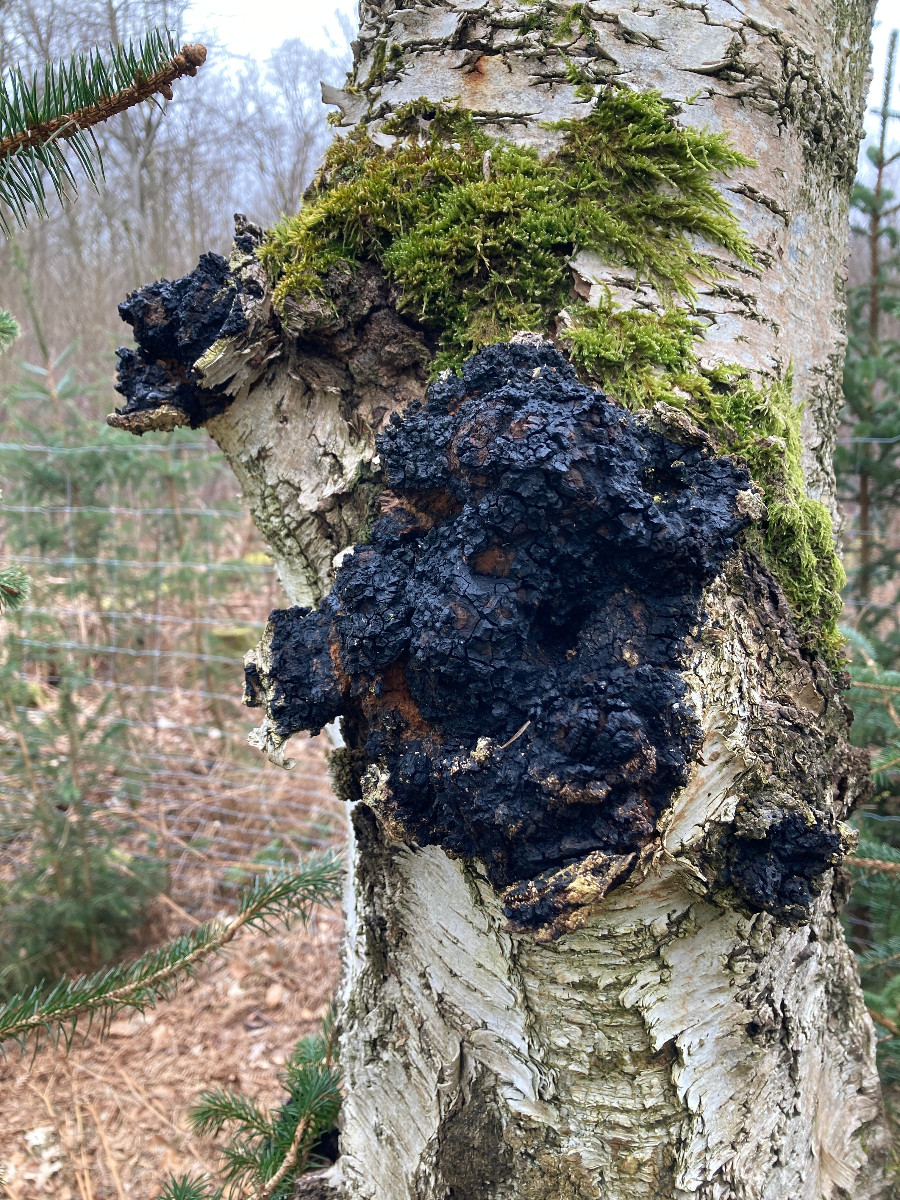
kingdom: Fungi
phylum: Basidiomycota
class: Agaricomycetes
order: Hymenochaetales
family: Hymenochaetaceae
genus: Inonotus
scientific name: Inonotus obliquus
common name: birke-spejlporesvamp
